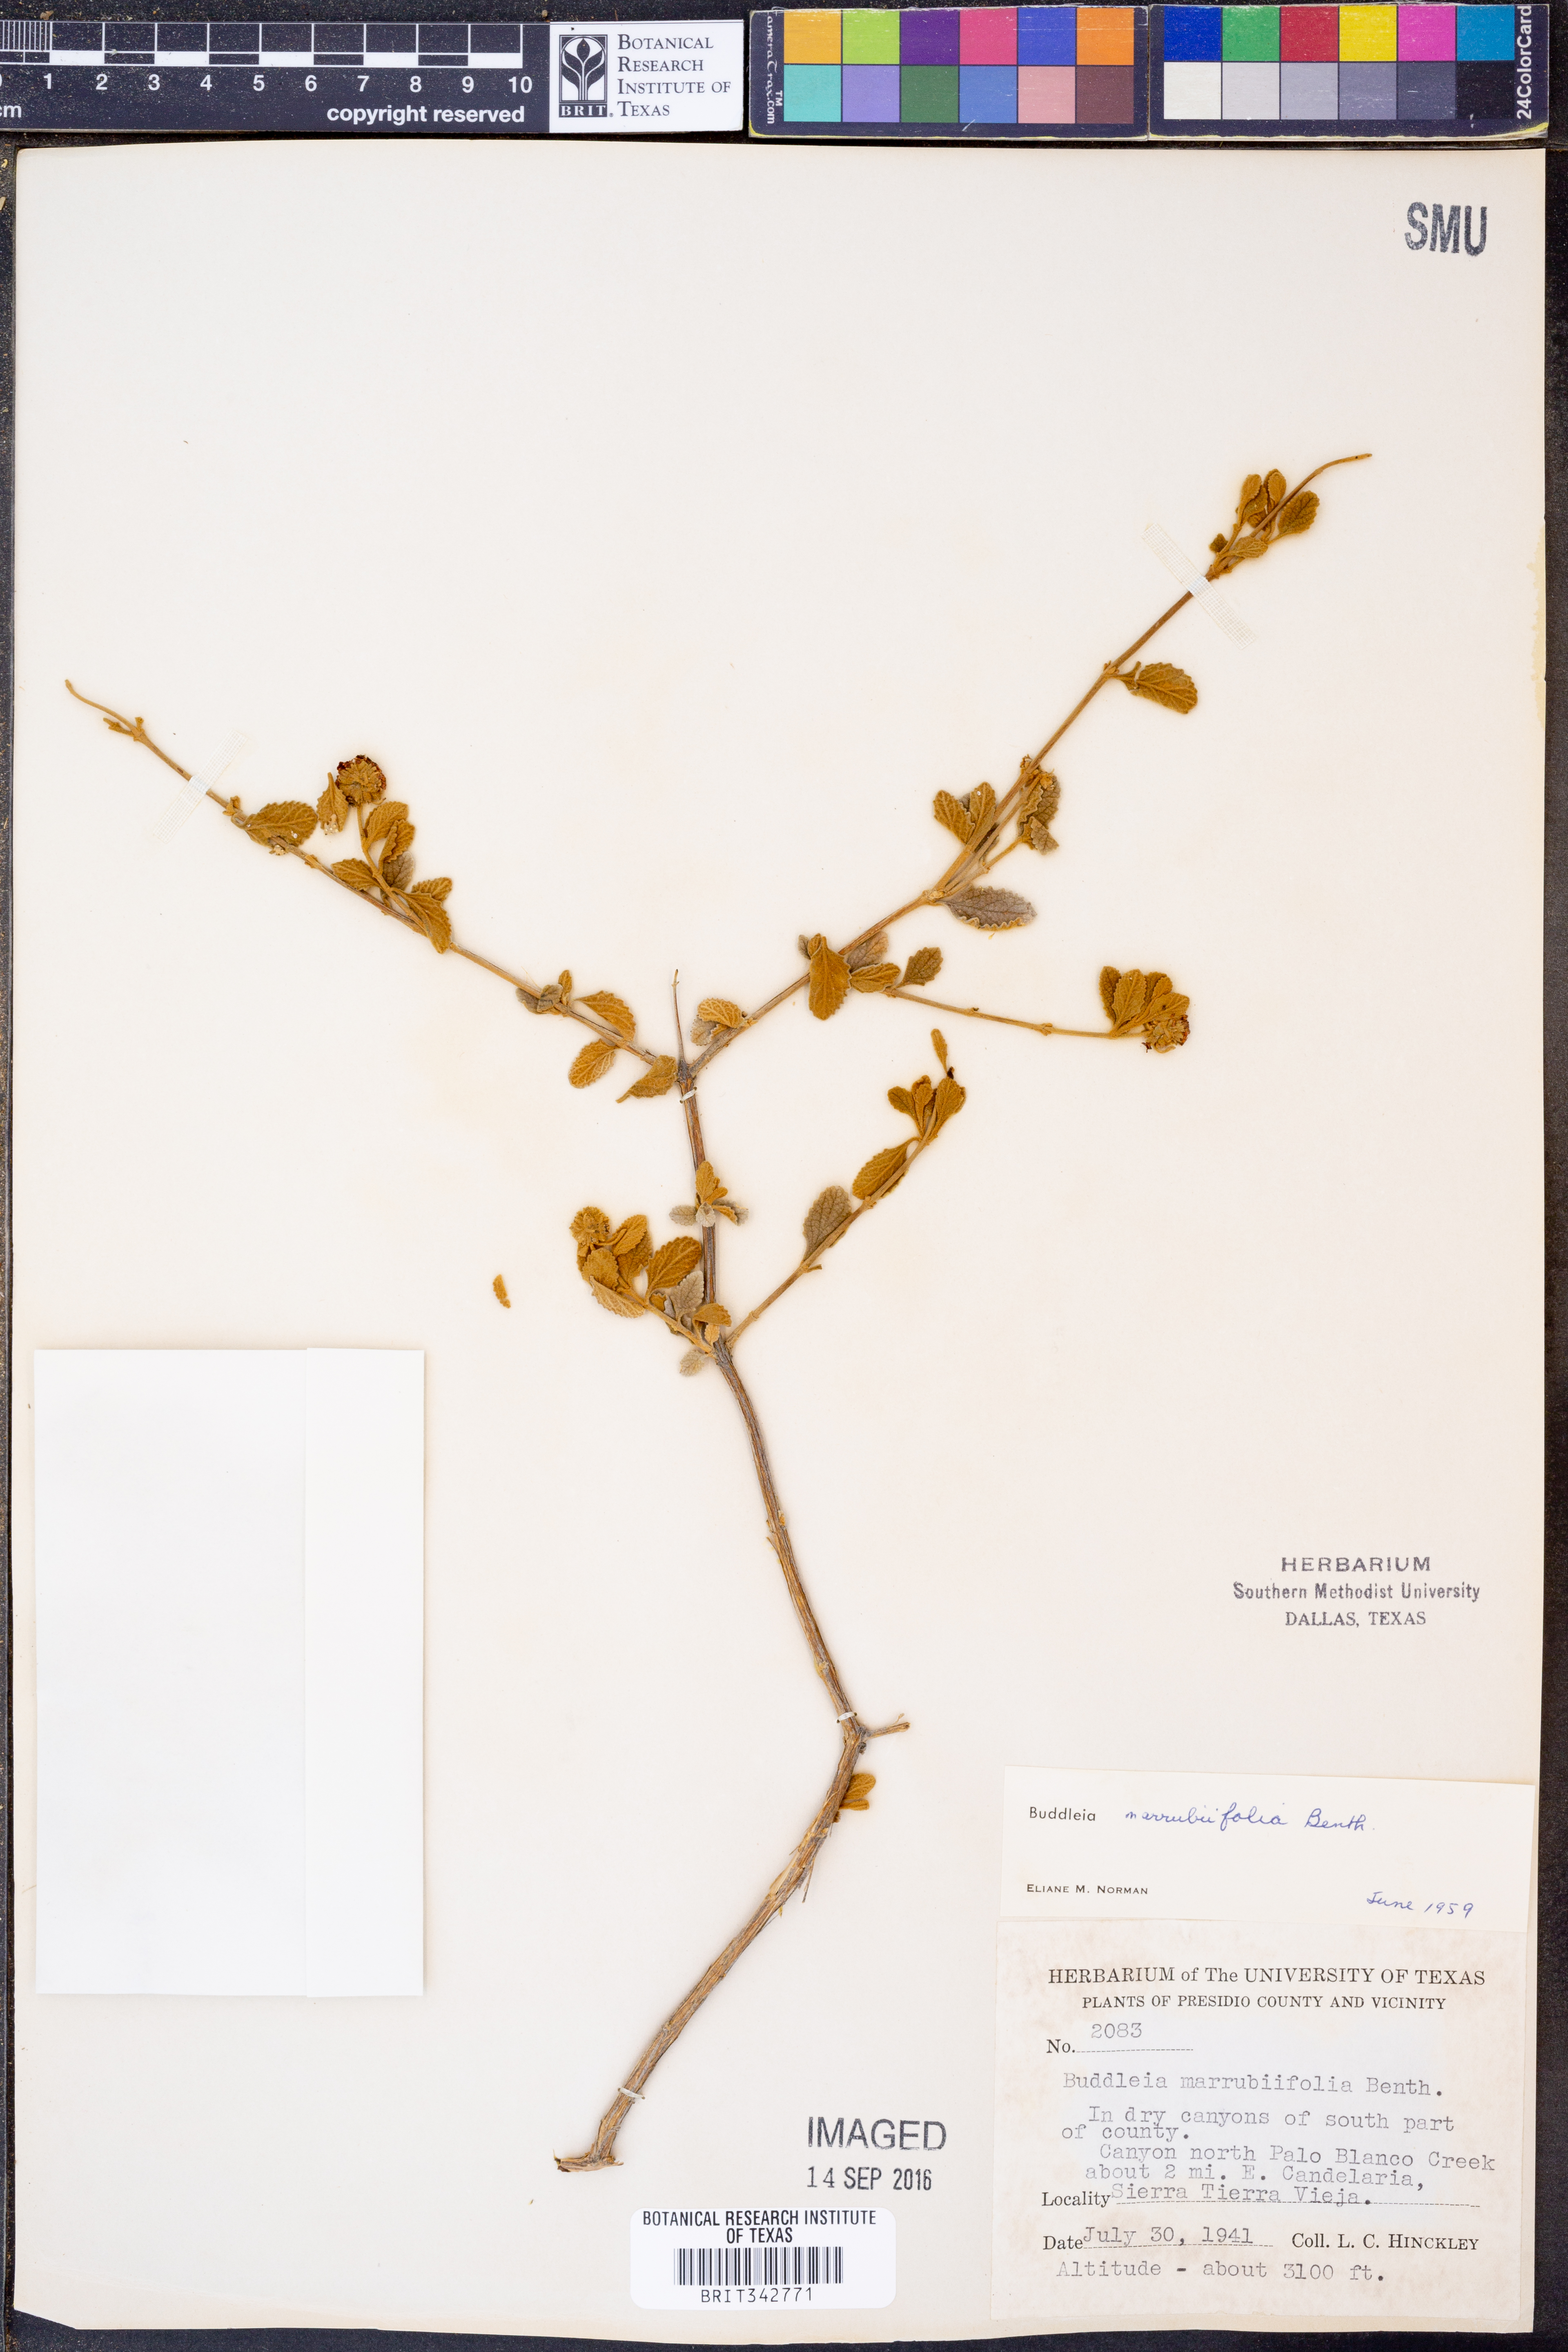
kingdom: Plantae
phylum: Tracheophyta
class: Magnoliopsida
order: Lamiales
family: Scrophulariaceae
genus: Buddleja
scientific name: Buddleja marrubiifolia
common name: Woolly butterfly-bush
